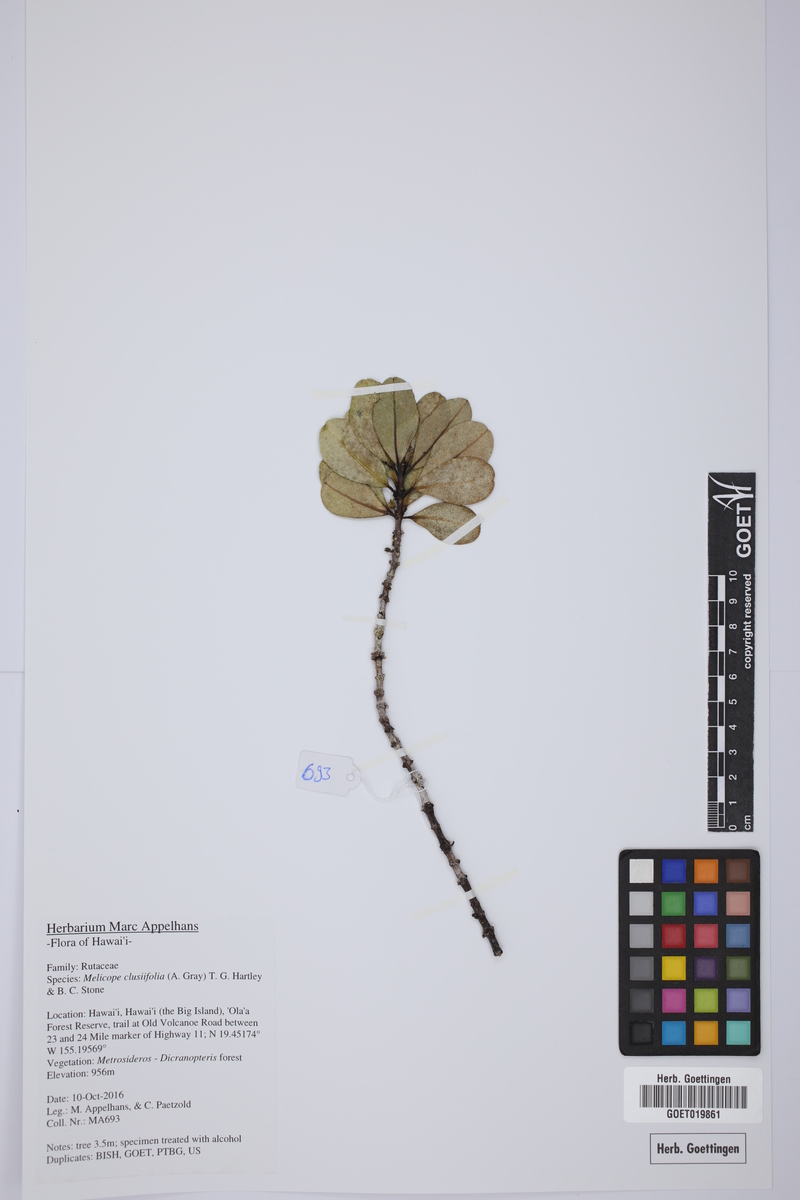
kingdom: Plantae
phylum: Tracheophyta
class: Magnoliopsida
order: Sapindales
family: Rutaceae
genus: Melicope
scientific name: Melicope clusiifolia
